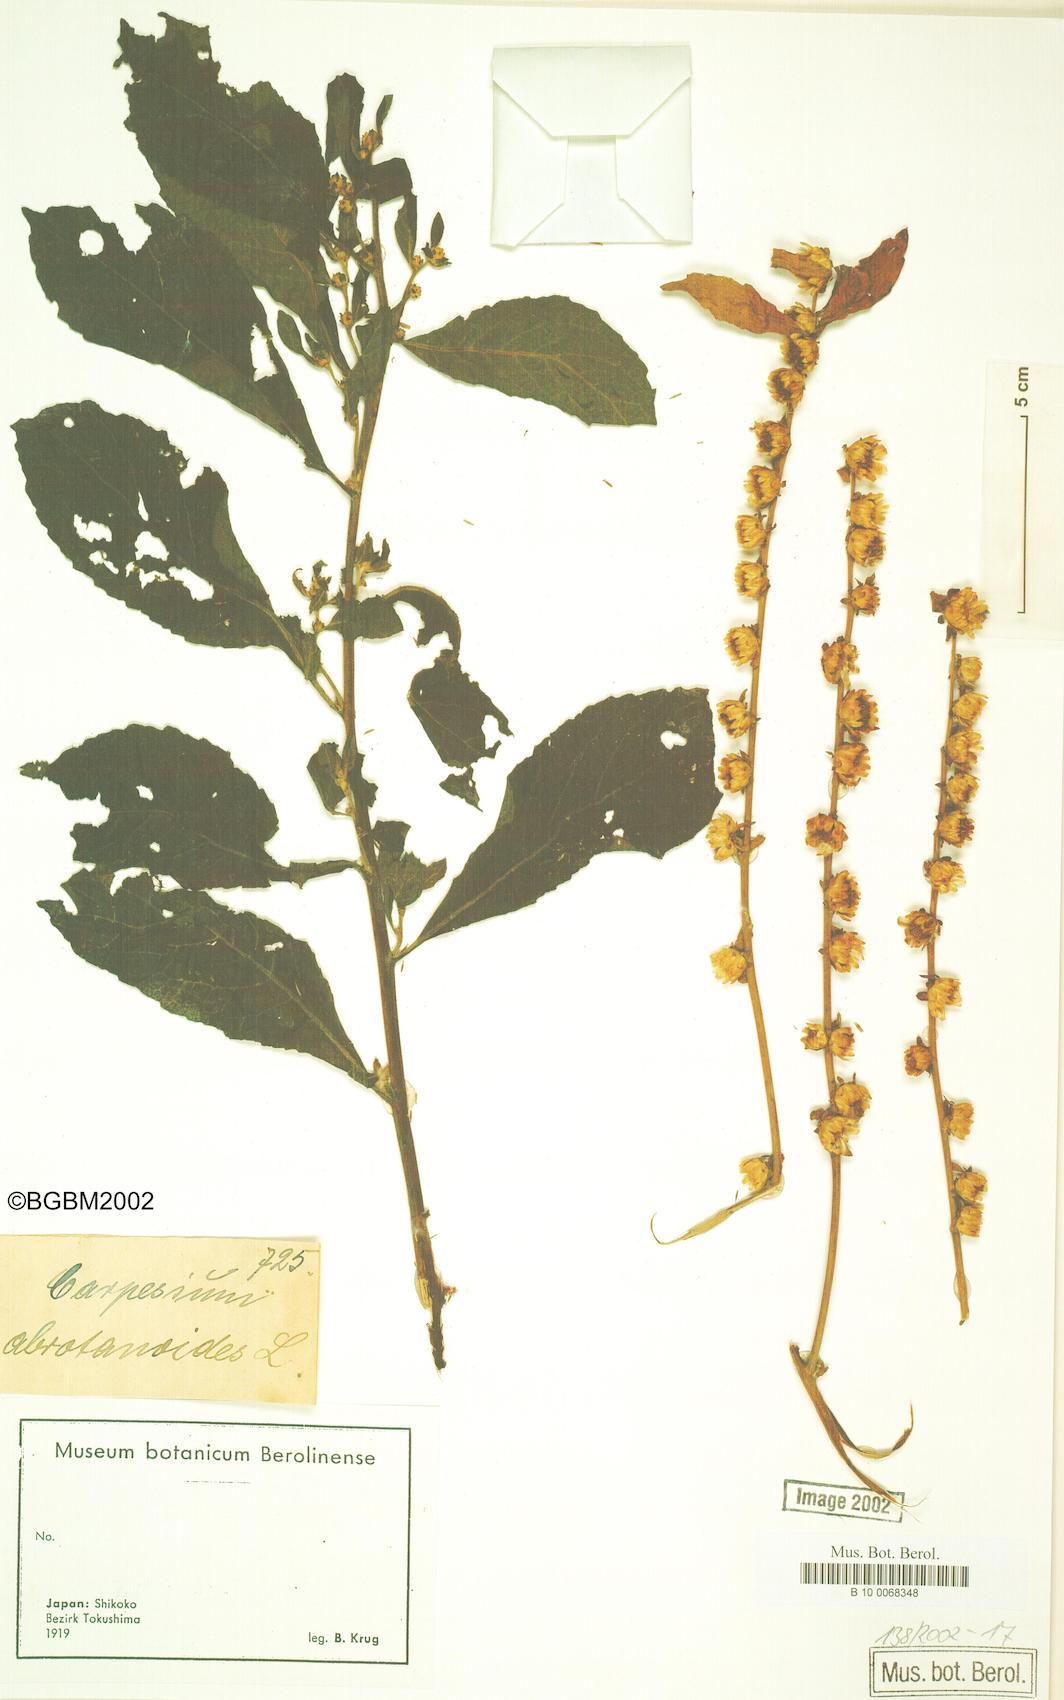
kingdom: Plantae
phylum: Tracheophyta
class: Magnoliopsida
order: Asterales
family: Asteraceae
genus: Carpesium
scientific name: Carpesium abrotanoides
